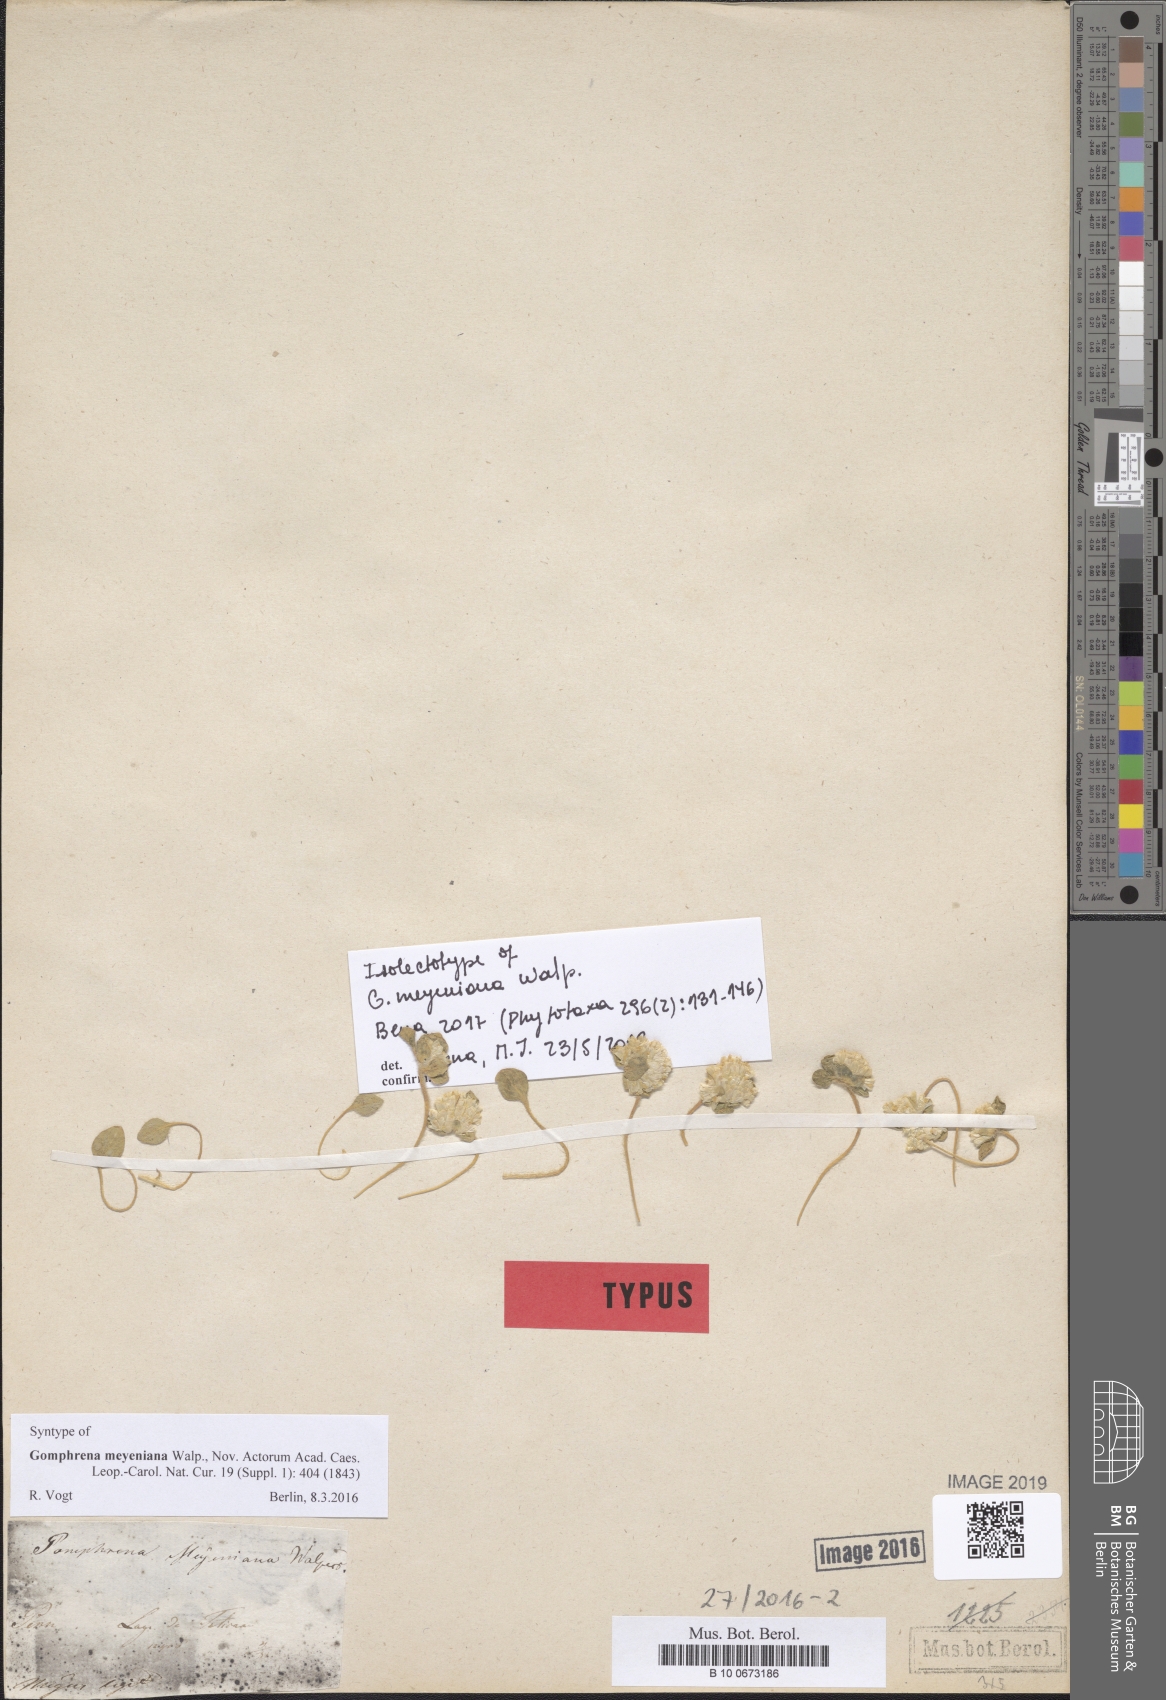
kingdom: Plantae
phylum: Tracheophyta
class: Magnoliopsida
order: Caryophyllales
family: Amaranthaceae
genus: Gomphrena
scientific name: Gomphrena meyeniana
